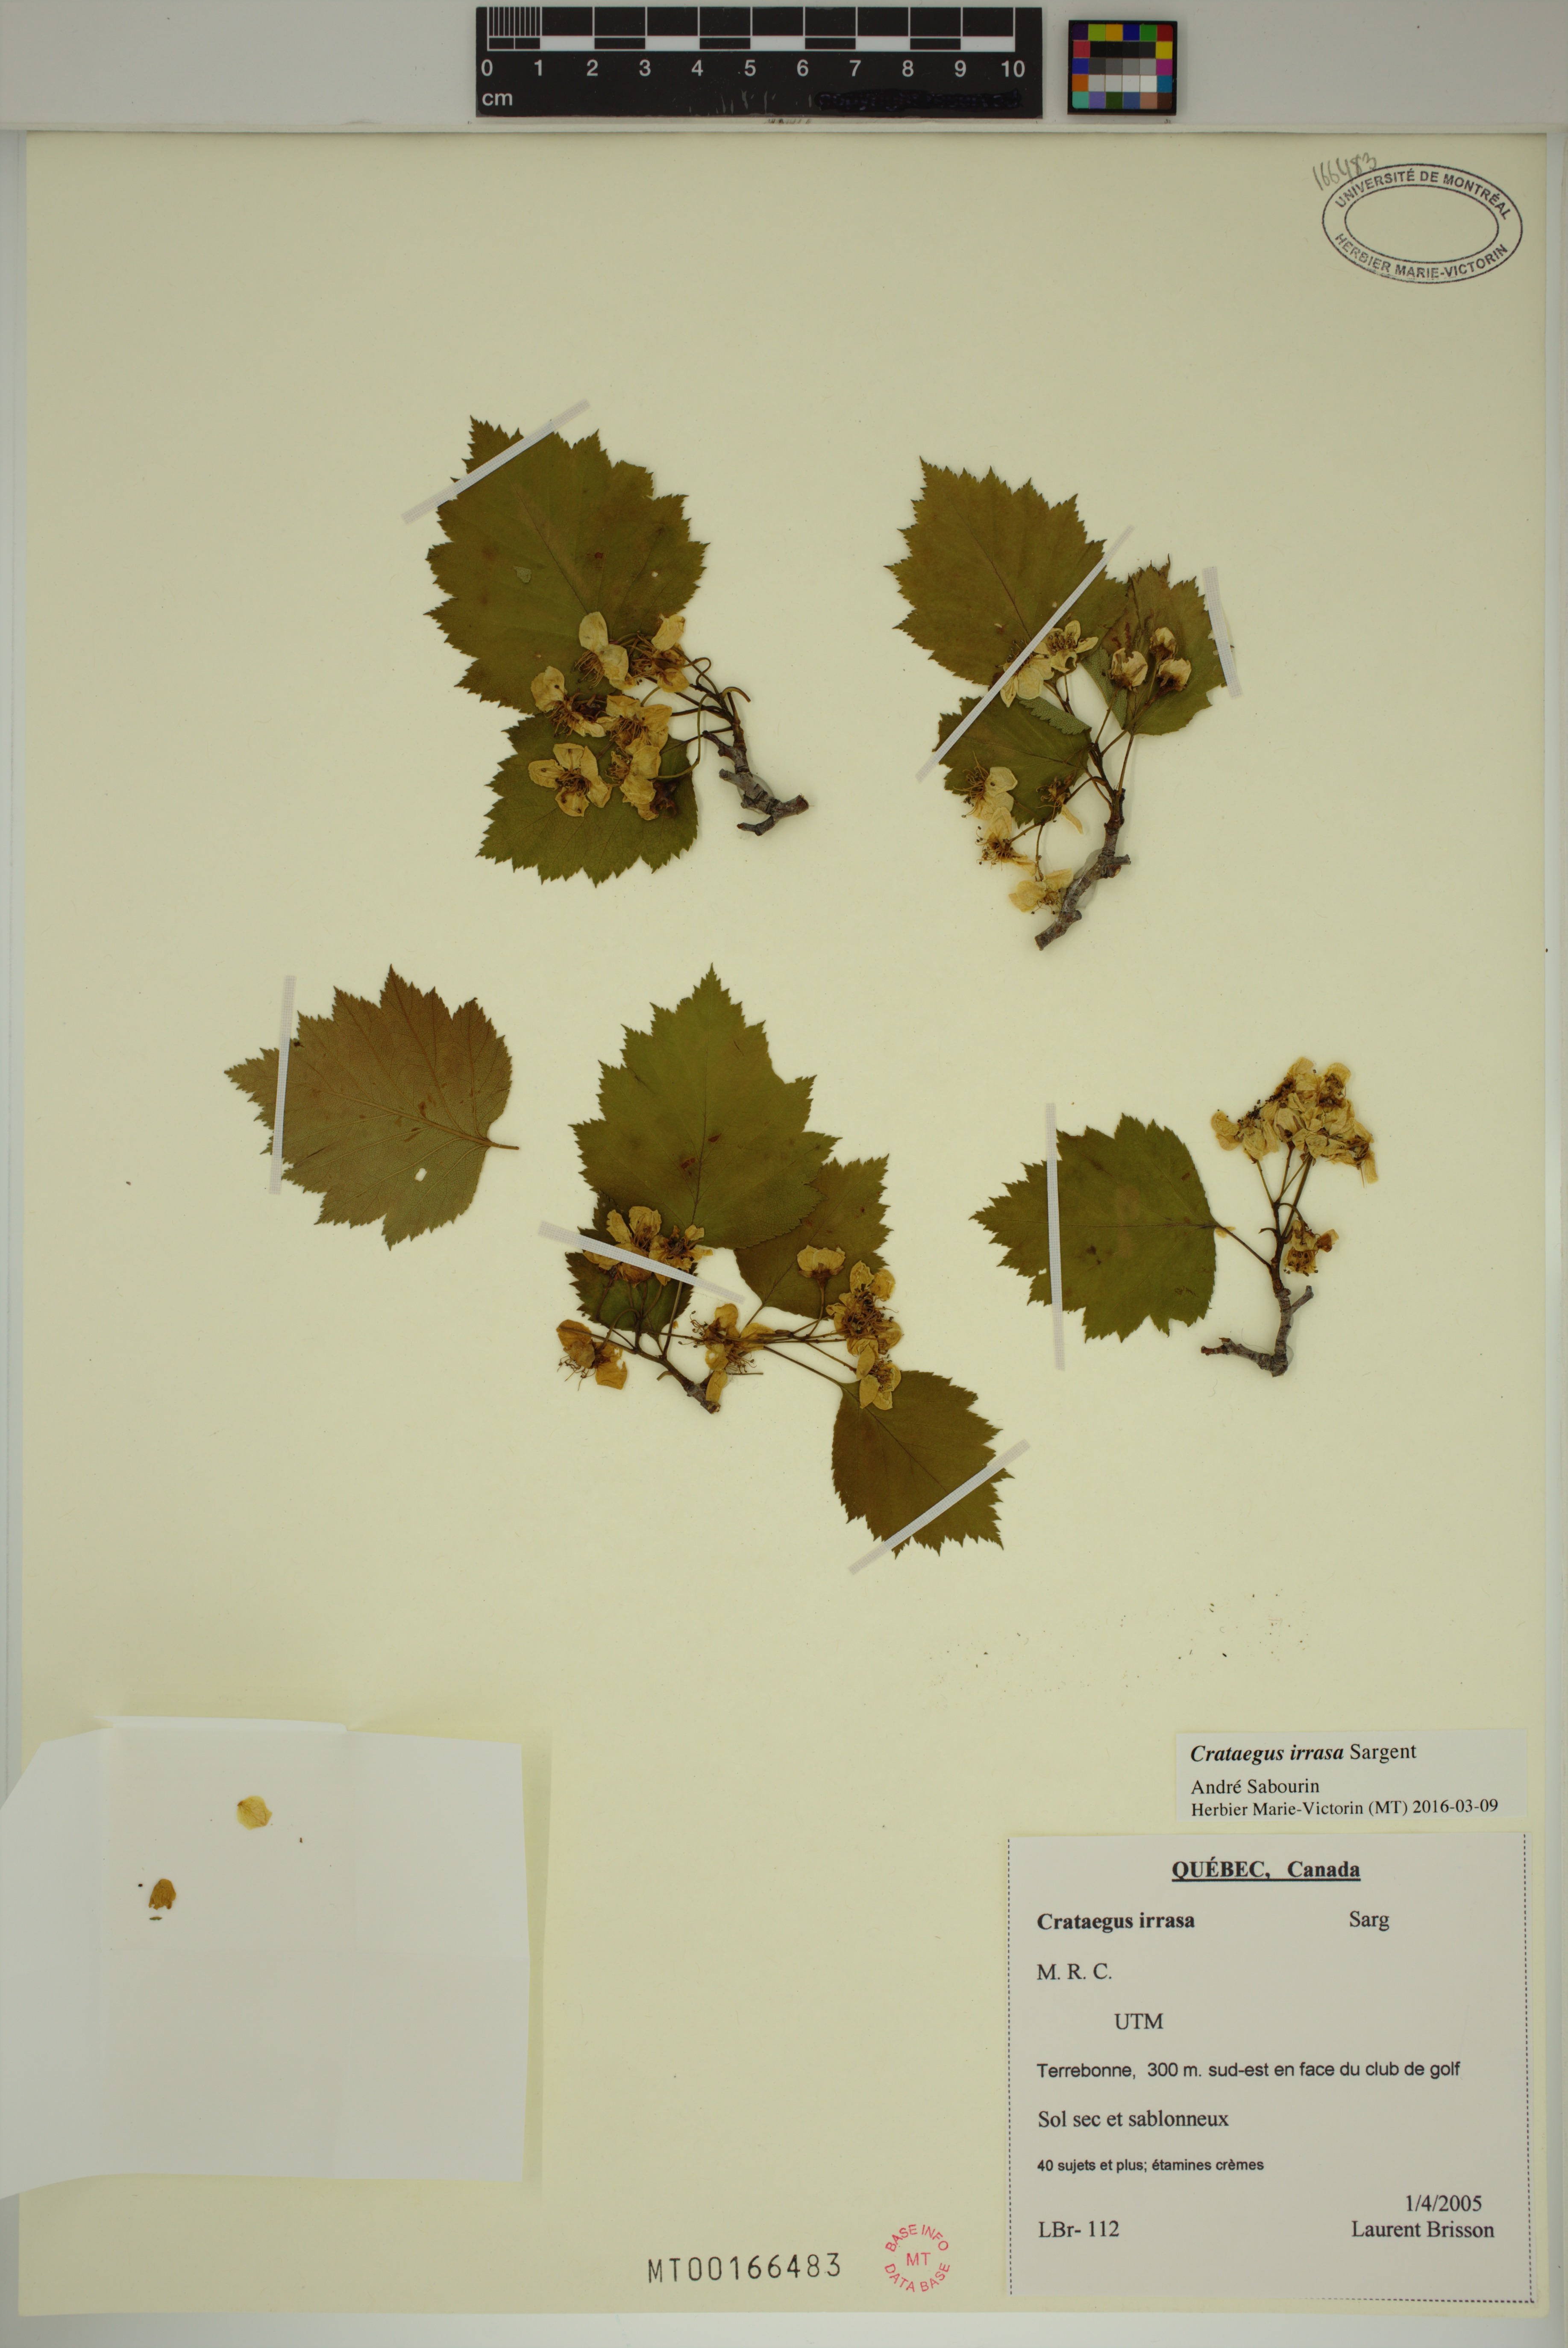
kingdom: Plantae
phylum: Tracheophyta
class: Magnoliopsida
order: Rosales
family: Rosaceae
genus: Crataegus
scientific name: Crataegus schuettei
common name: Schuette's hawthorn
